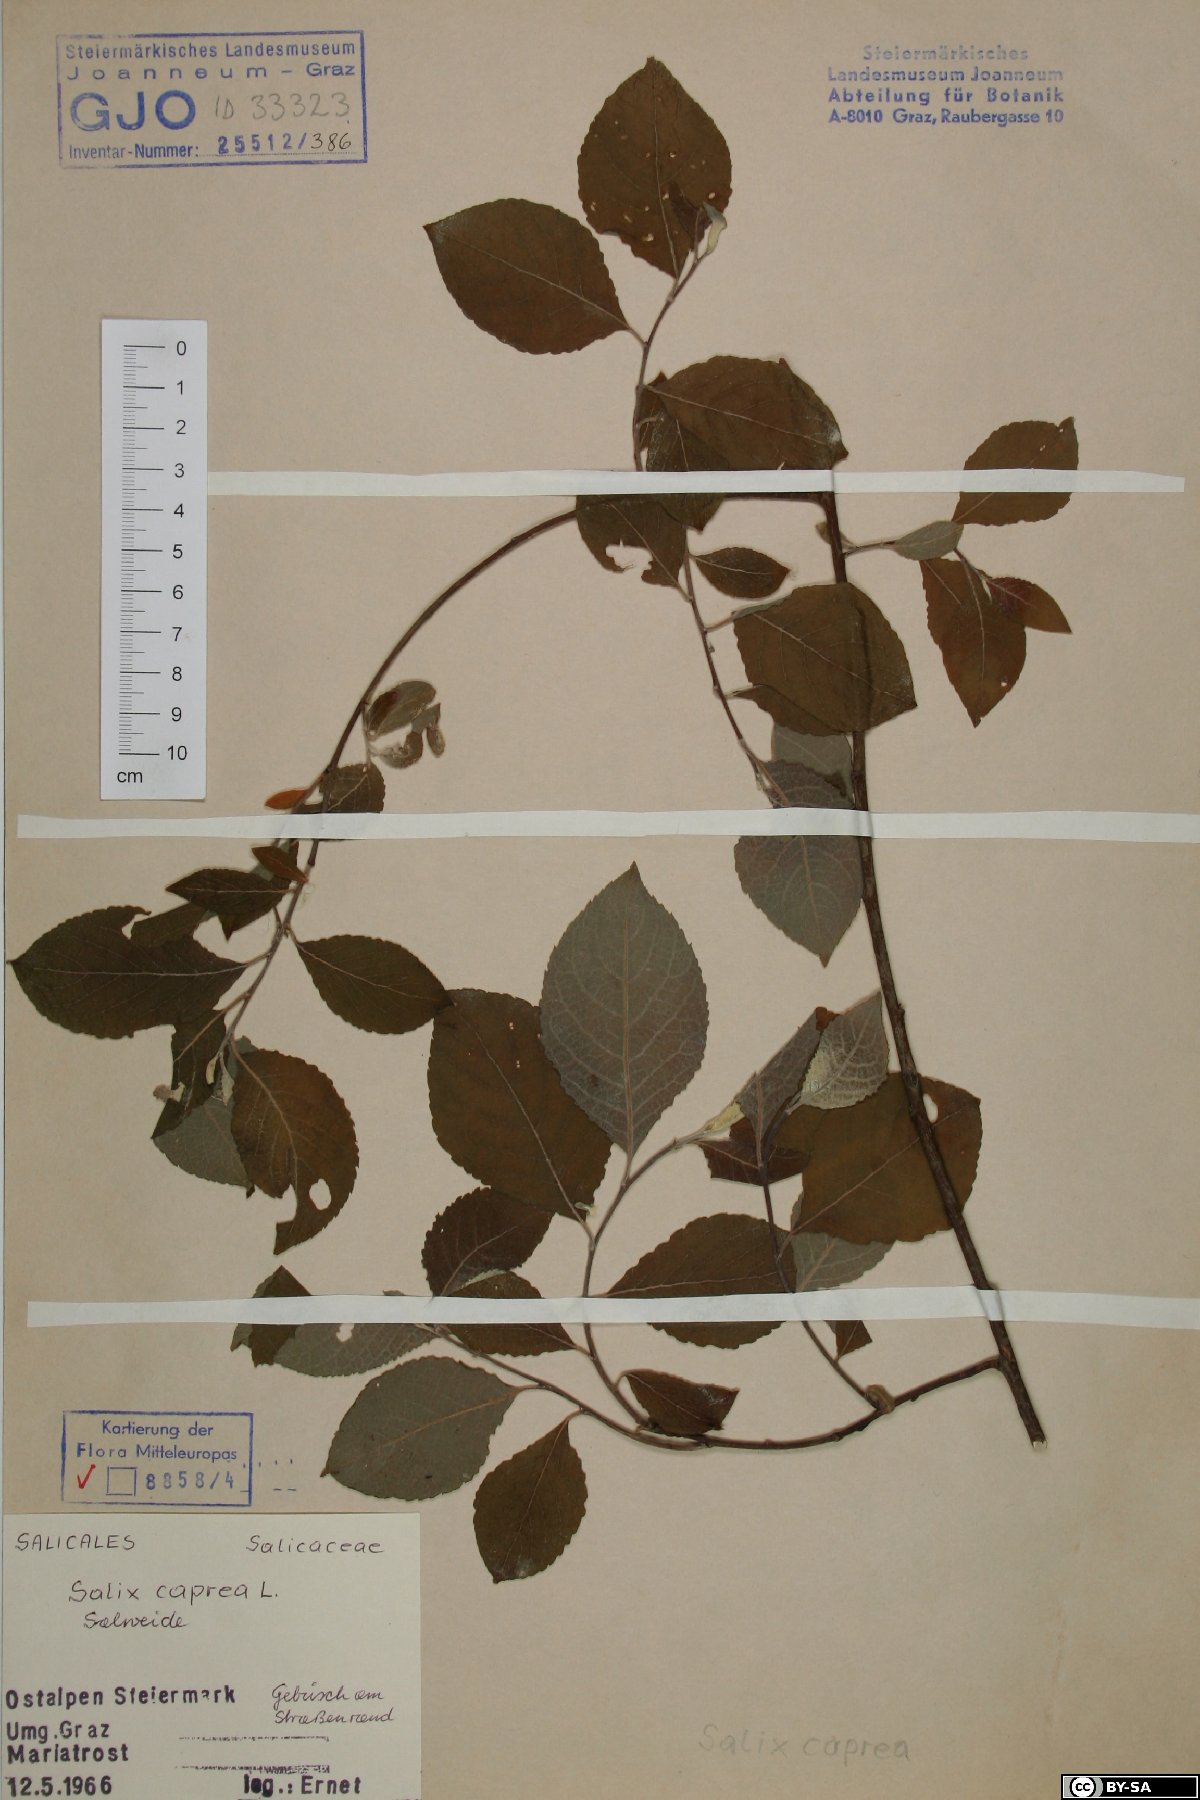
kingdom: Plantae
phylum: Tracheophyta
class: Magnoliopsida
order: Malpighiales
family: Salicaceae
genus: Salix
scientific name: Salix caprea
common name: Goat willow
